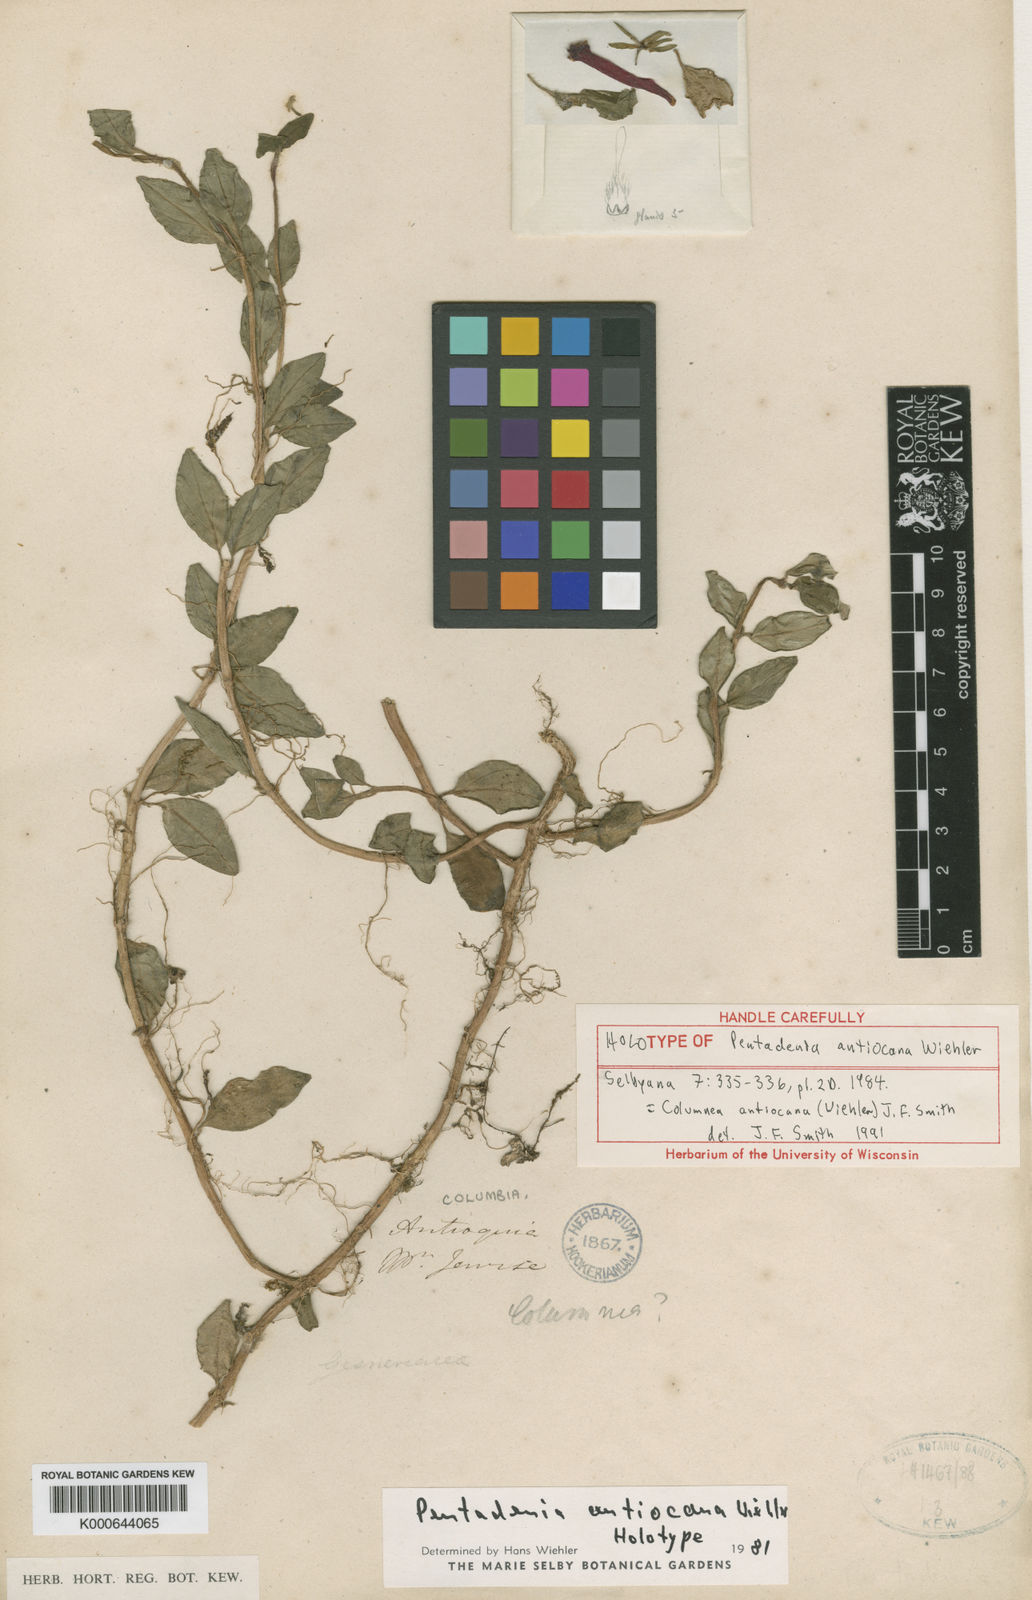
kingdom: Plantae
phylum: Tracheophyta
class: Magnoliopsida
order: Lamiales
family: Gesneriaceae
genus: Columnea
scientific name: Columnea antiocana
